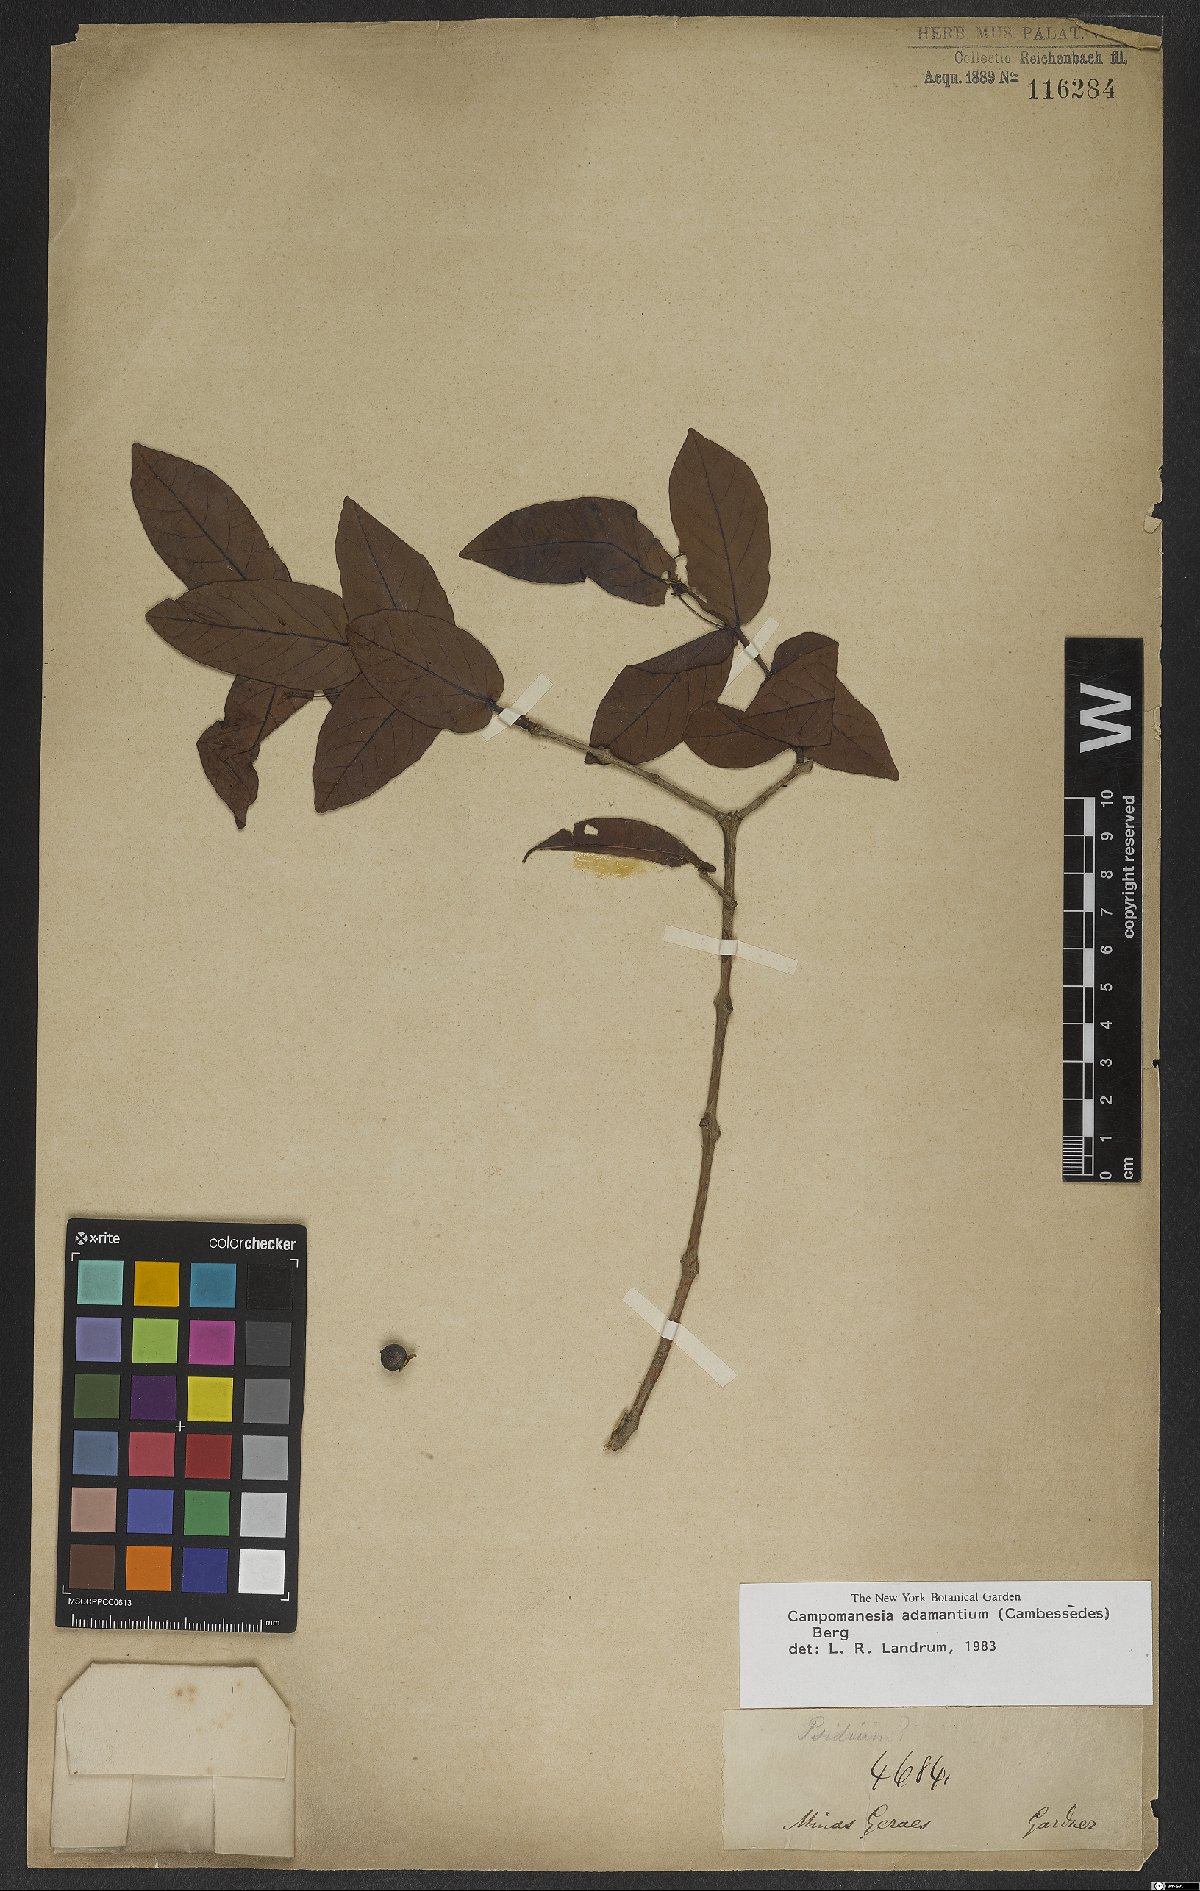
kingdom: Plantae
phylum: Tracheophyta
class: Magnoliopsida
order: Myrtales
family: Myrtaceae
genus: Campomanesia
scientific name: Campomanesia adamantium
